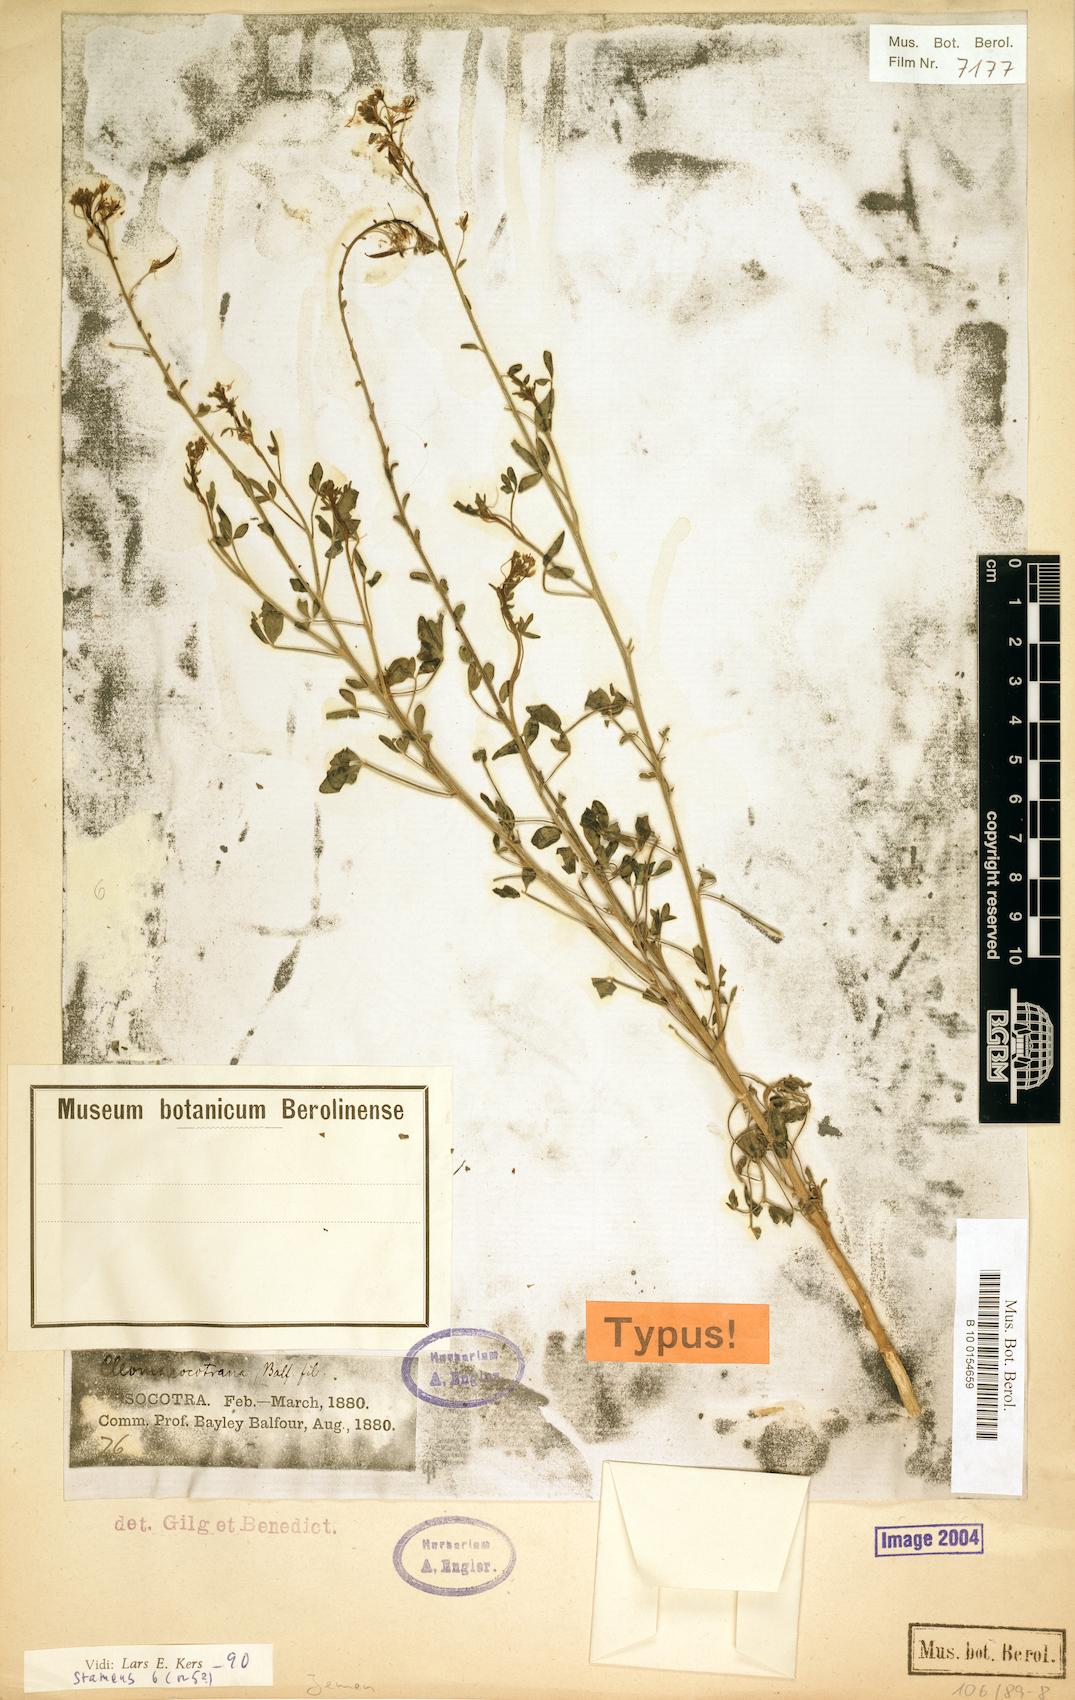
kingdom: Plantae
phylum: Tracheophyta
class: Magnoliopsida
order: Brassicales
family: Cleomaceae
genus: Cleome
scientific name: Cleome socotrana
